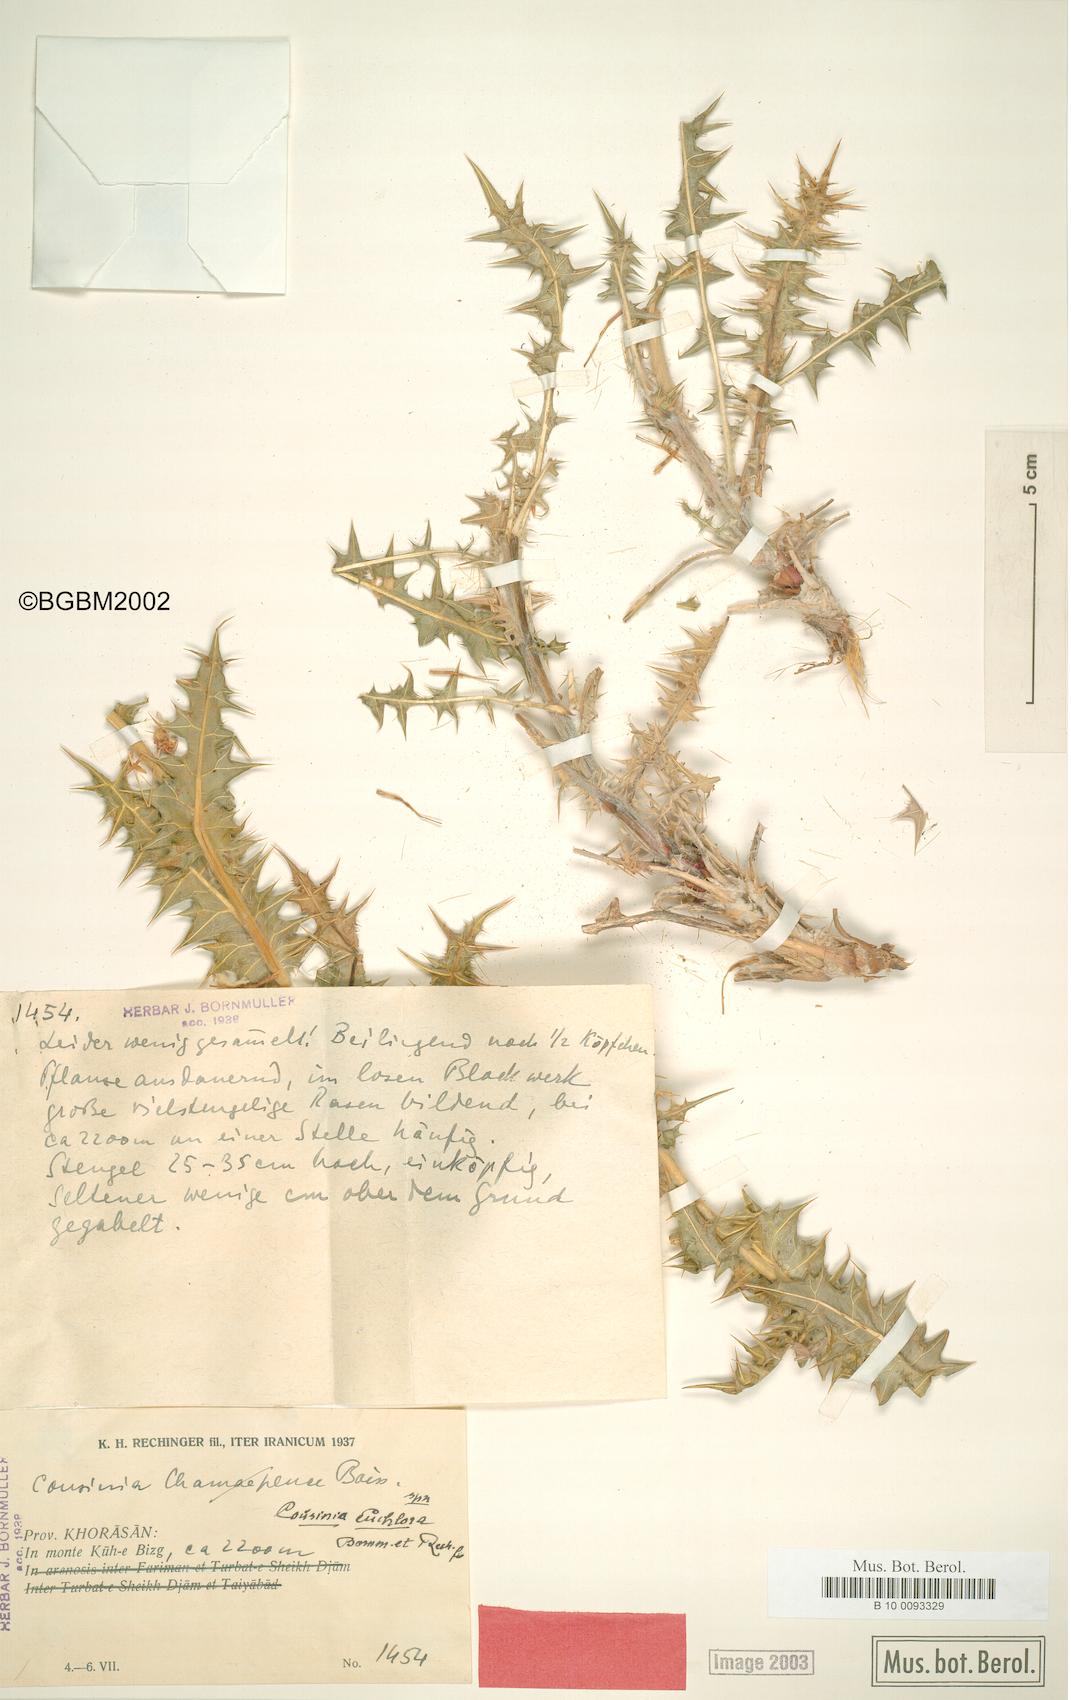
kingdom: Plantae
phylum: Tracheophyta
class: Magnoliopsida
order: Asterales
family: Asteraceae
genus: Cousinia
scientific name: Cousinia euchlora
